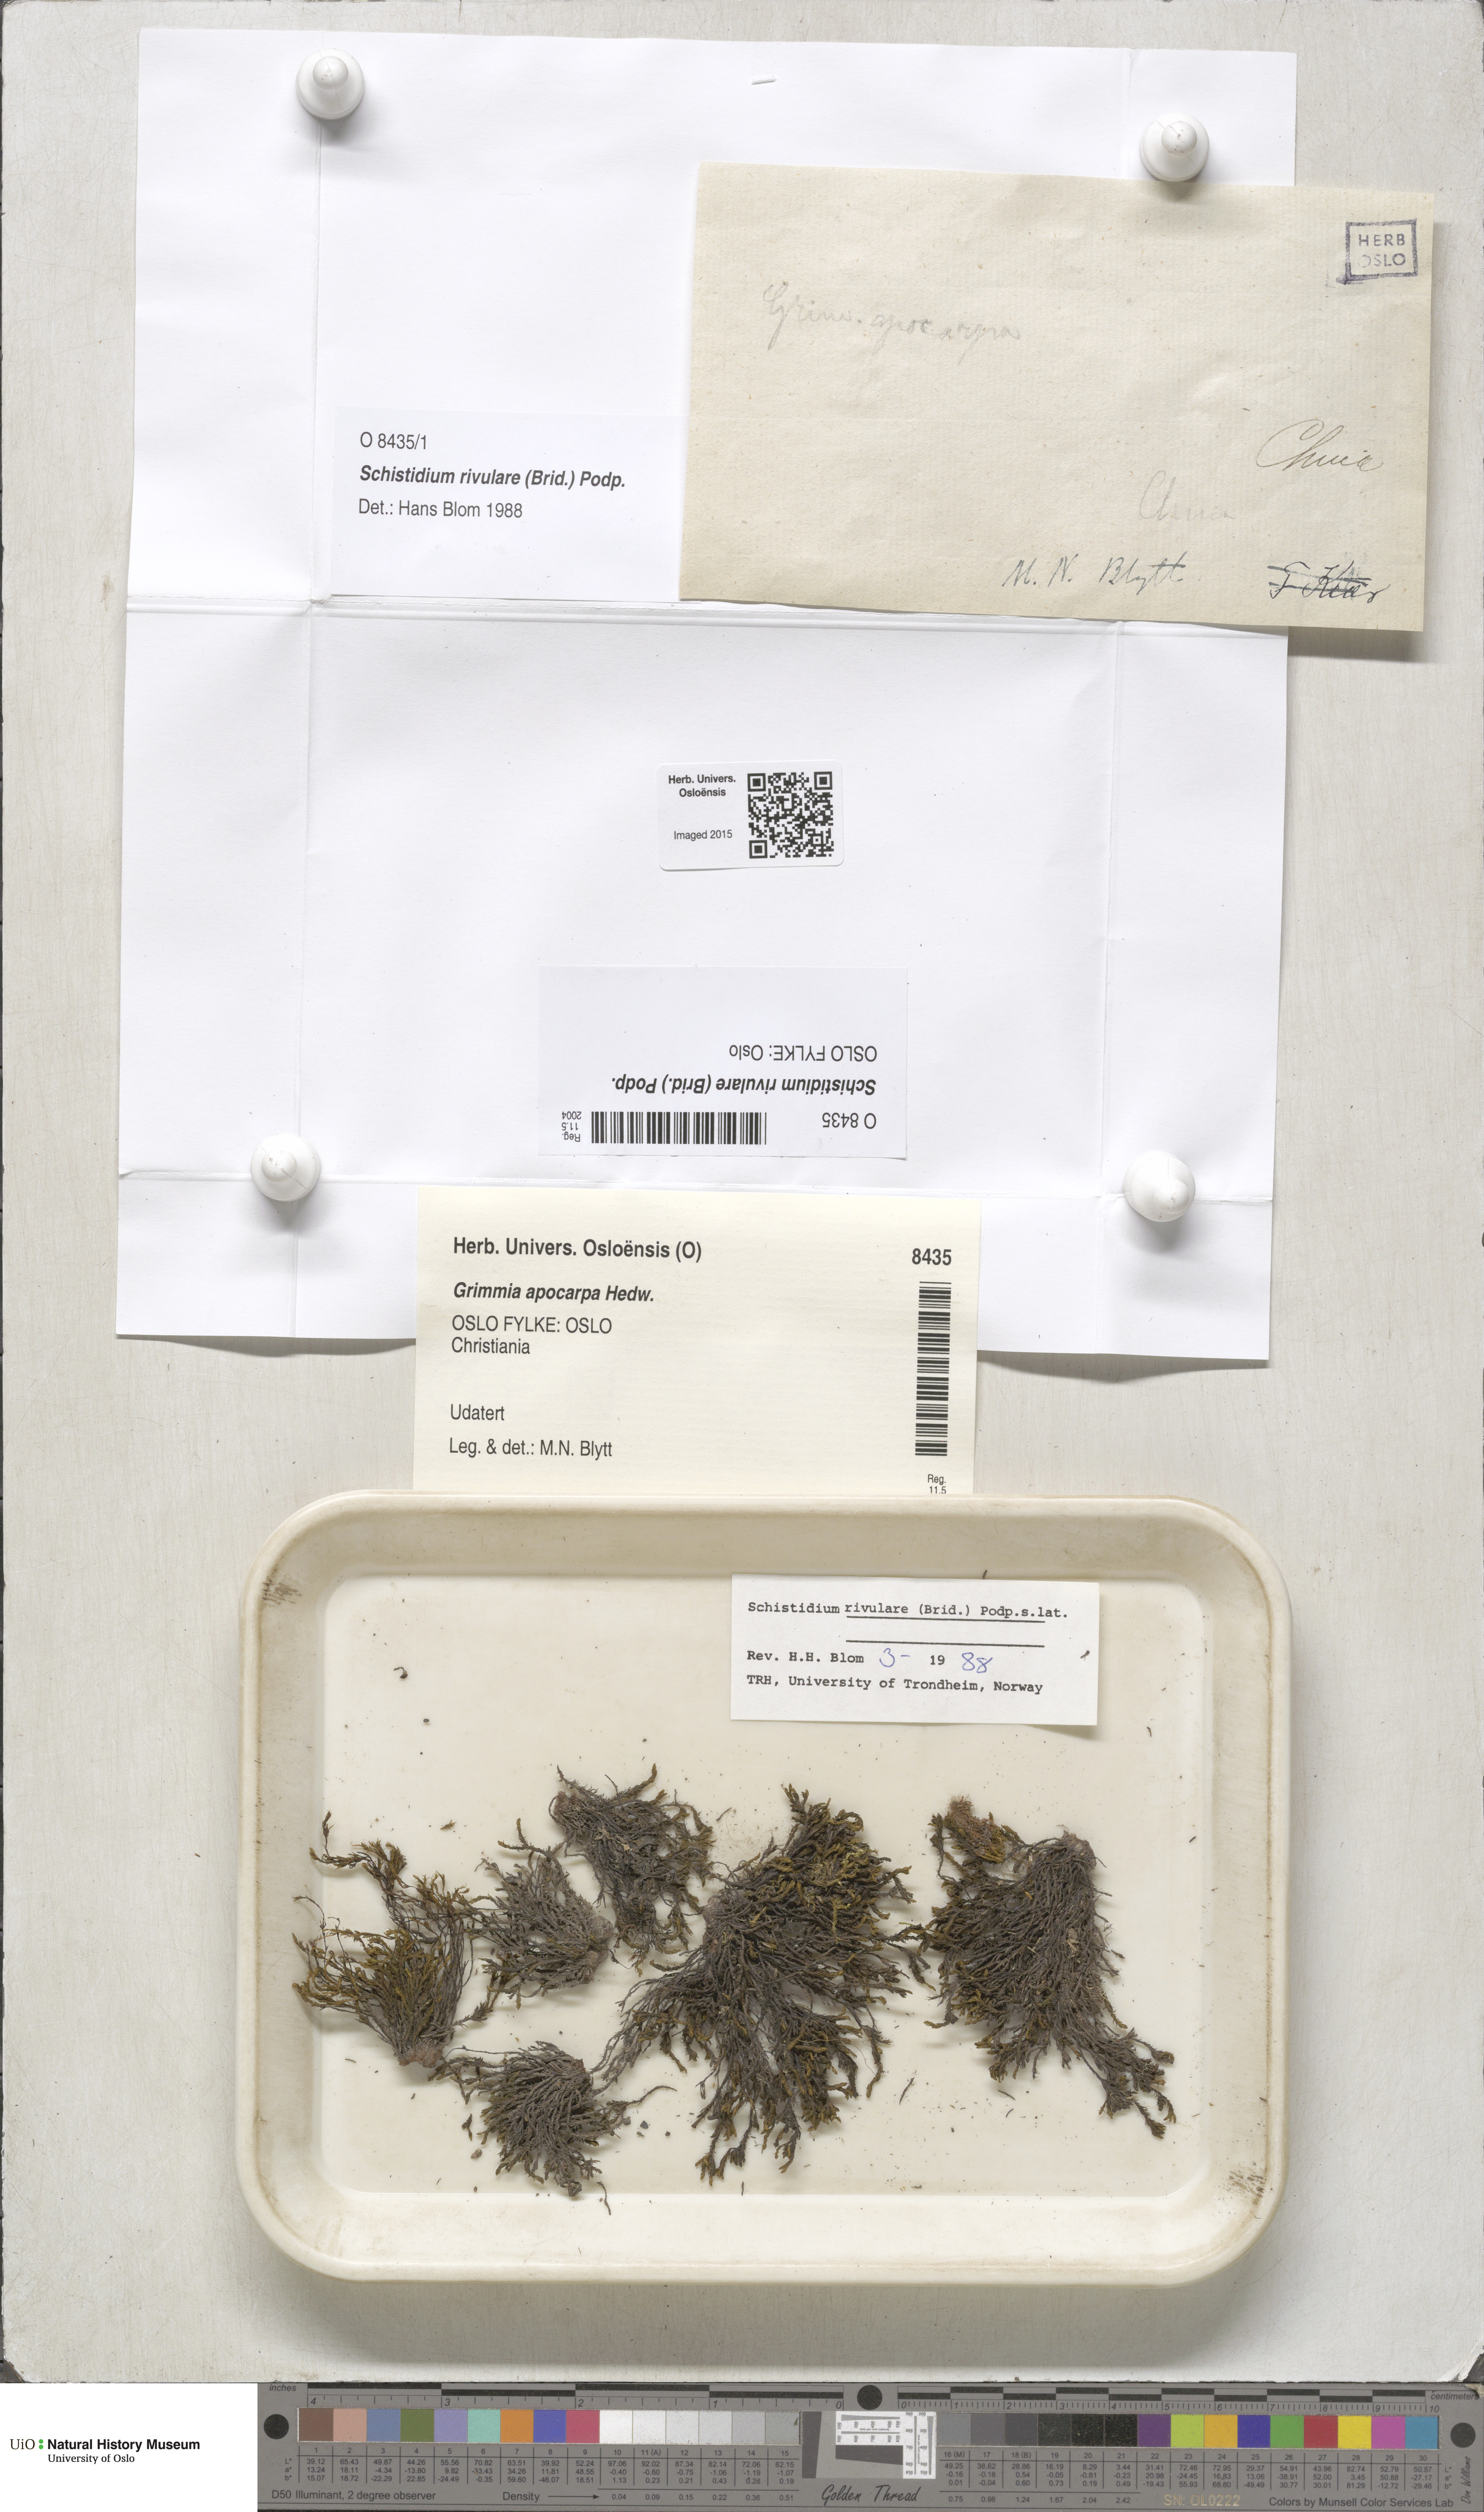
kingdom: Plantae
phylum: Bryophyta
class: Bryopsida
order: Grimmiales
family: Grimmiaceae
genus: Schistidium
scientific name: Schistidium rivulare
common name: River bloom moss
